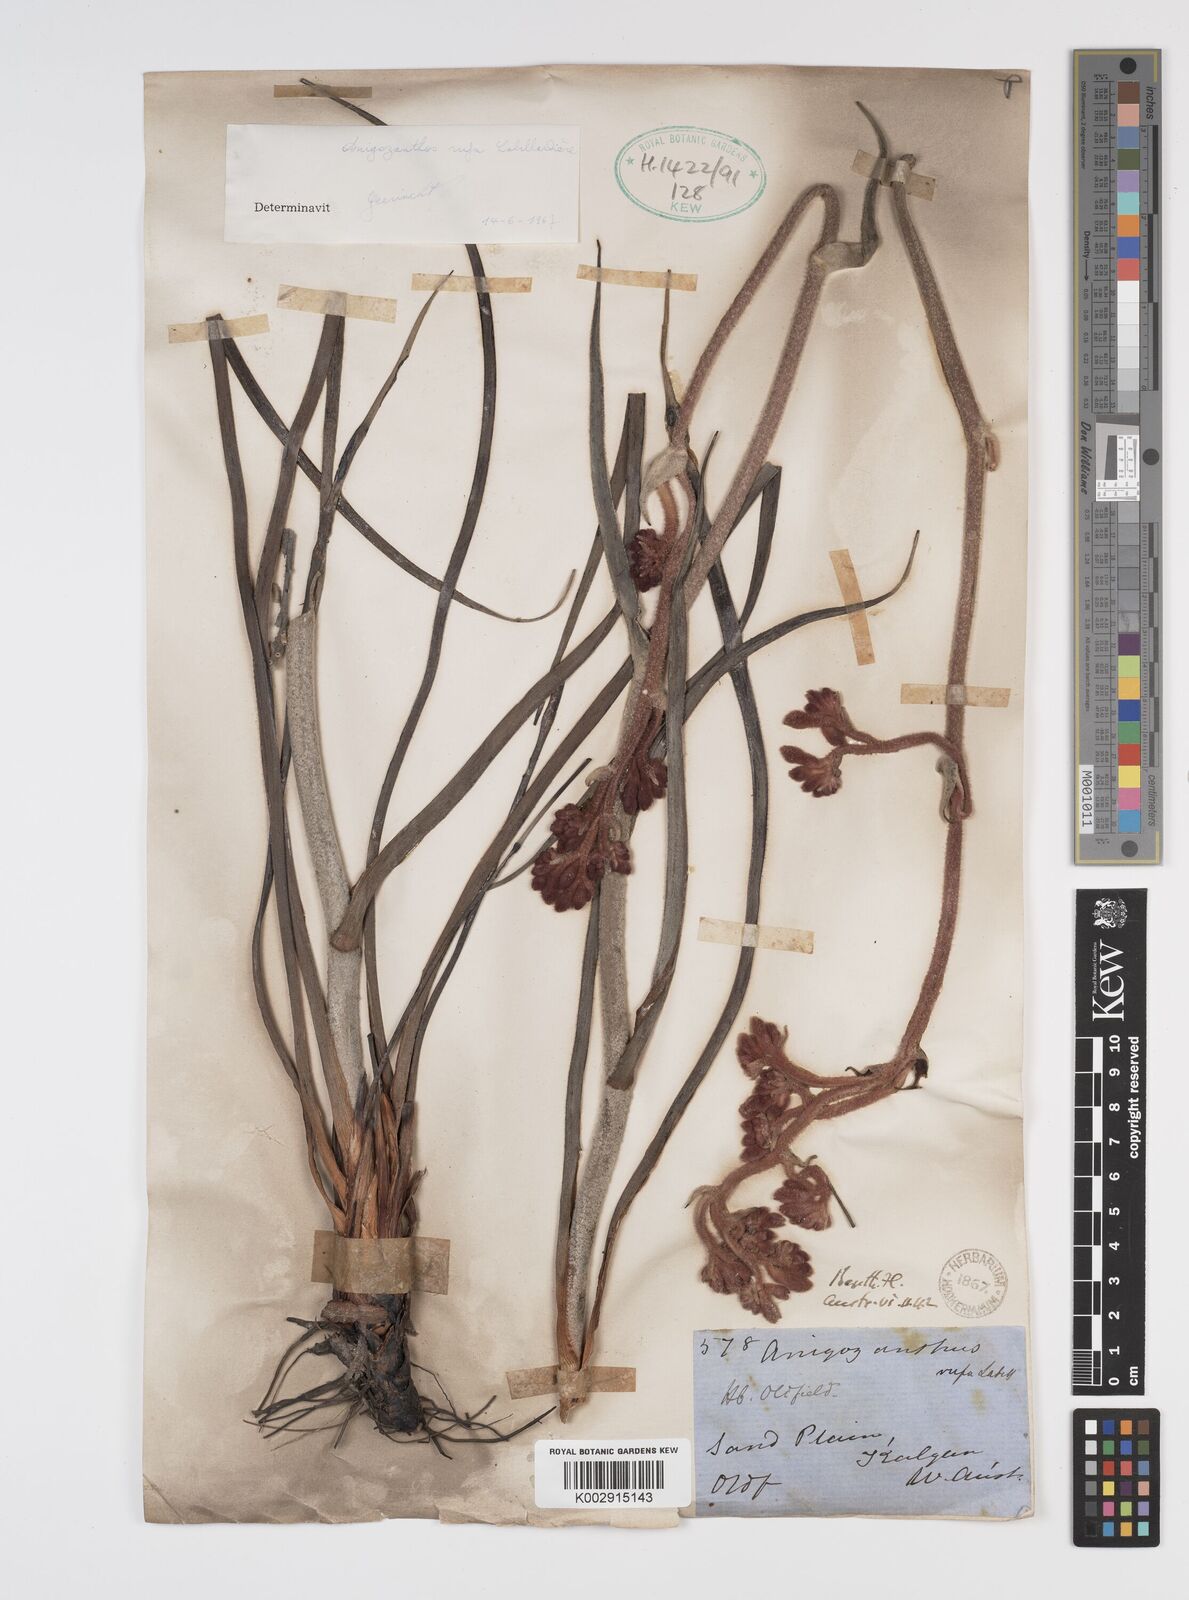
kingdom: Plantae
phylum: Tracheophyta
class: Liliopsida
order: Commelinales
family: Haemodoraceae
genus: Anigozanthos
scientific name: Anigozanthos rufus
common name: Red kangaroo-paw
